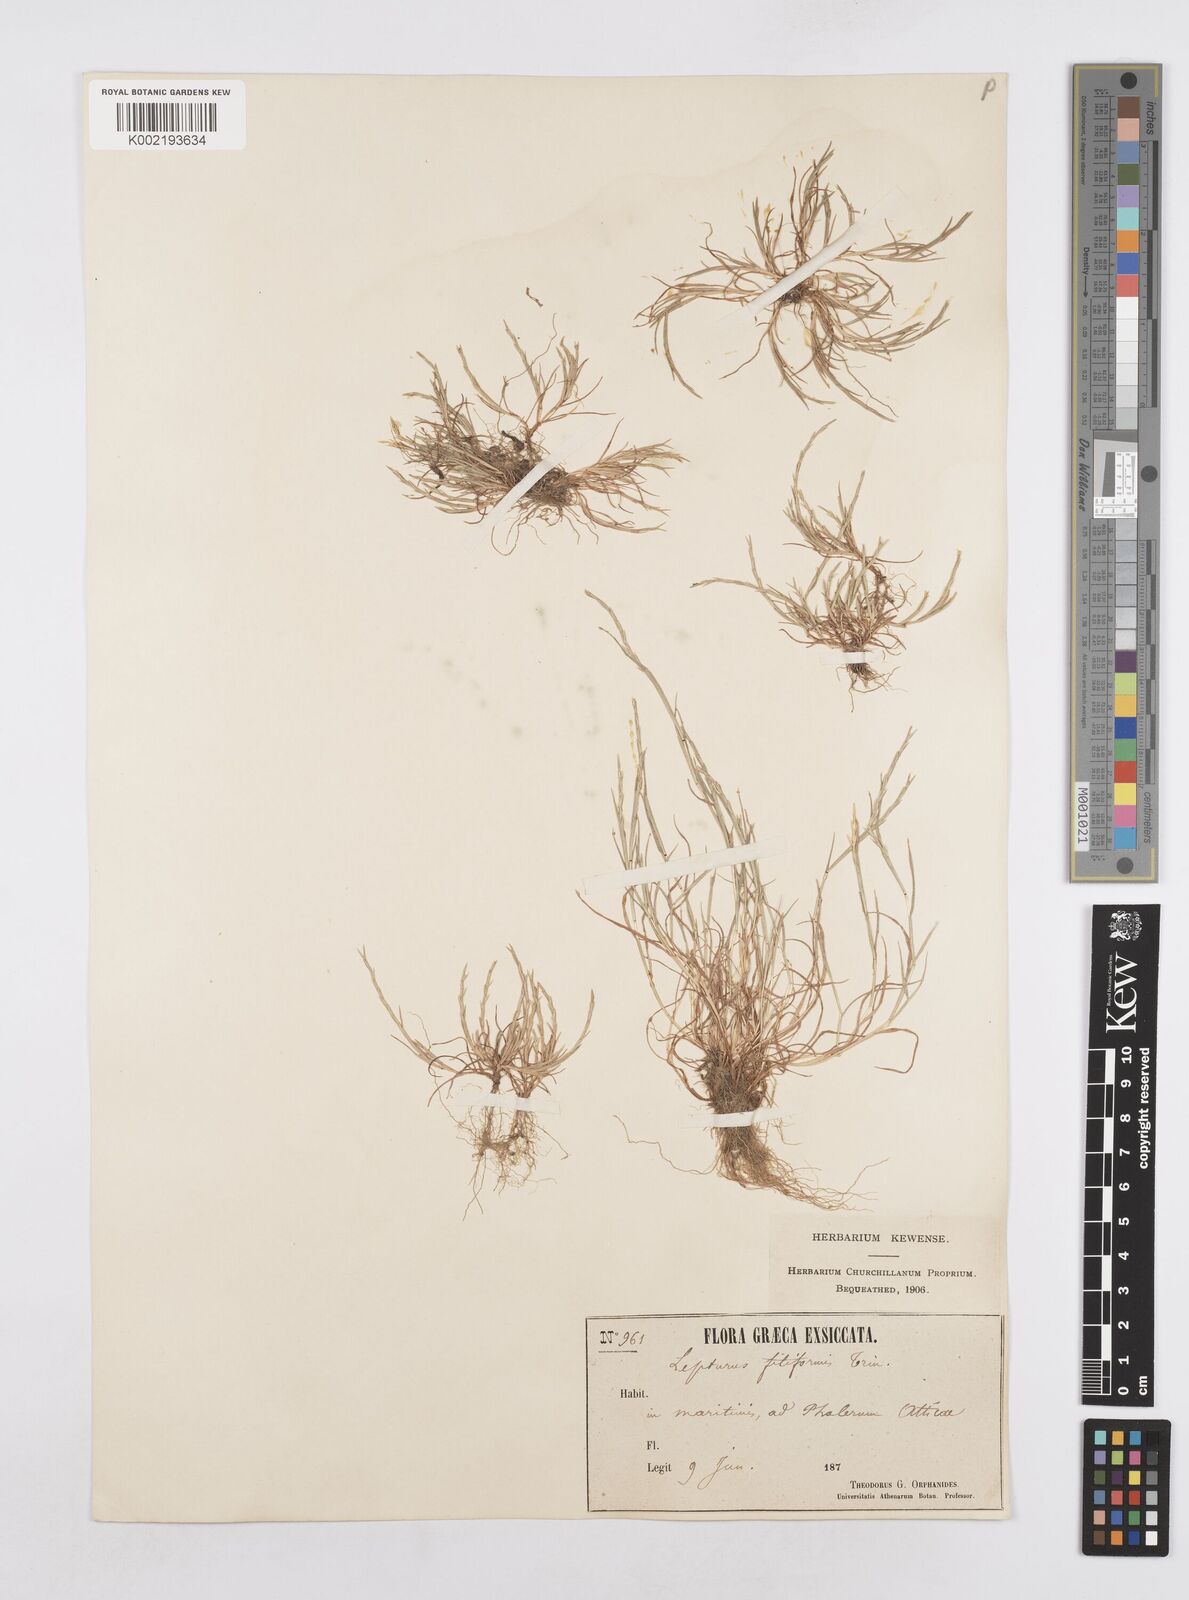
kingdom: Plantae
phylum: Tracheophyta
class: Liliopsida
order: Poales
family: Poaceae
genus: Parapholis
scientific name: Parapholis filiformis
